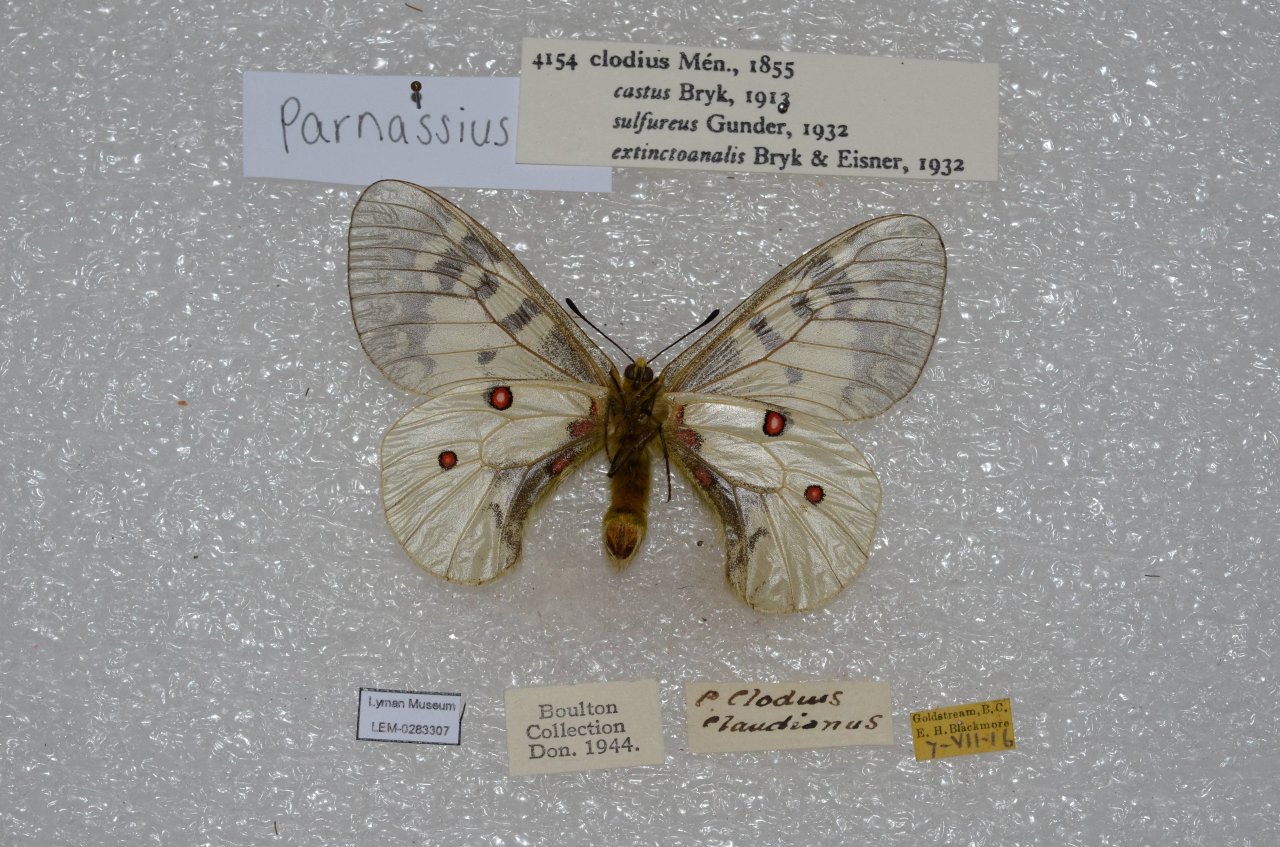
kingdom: Animalia
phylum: Arthropoda
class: Insecta
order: Lepidoptera
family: Papilionidae
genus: Parnassius
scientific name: Parnassius clodius
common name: Clodius Parnassian
